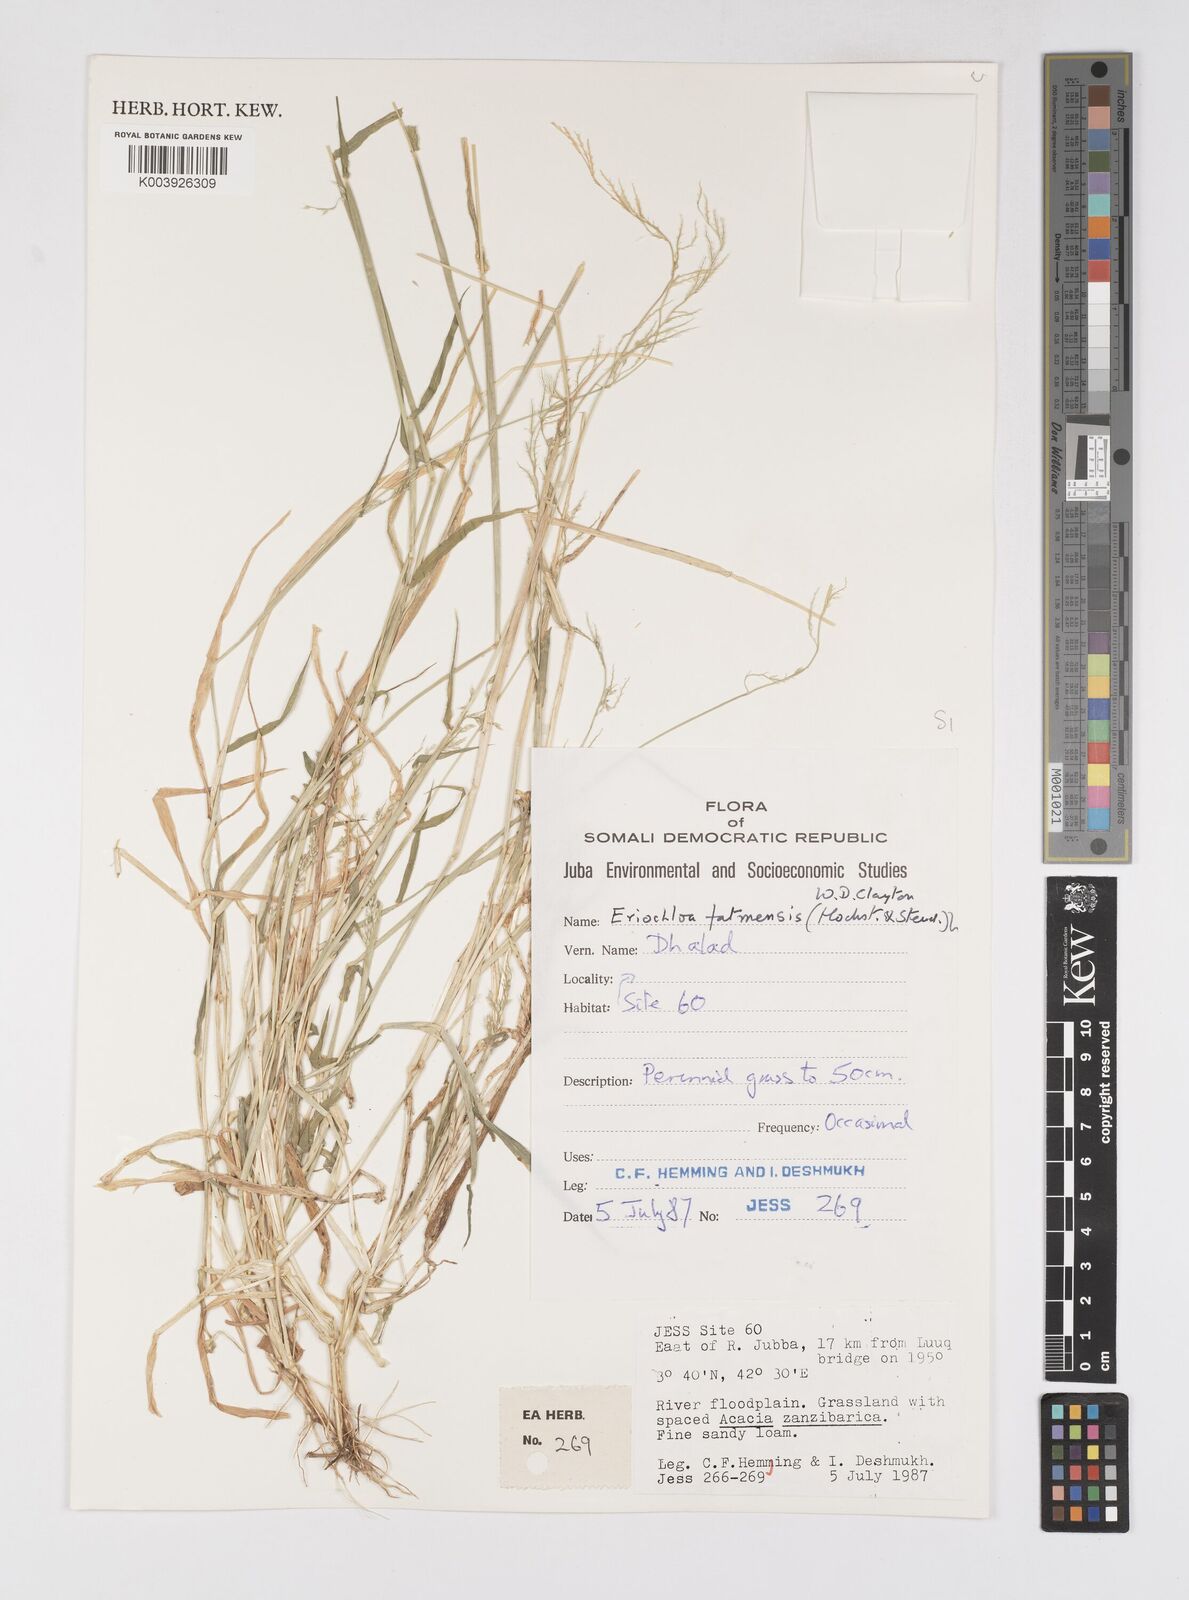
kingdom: Plantae
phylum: Tracheophyta
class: Liliopsida
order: Poales
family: Poaceae
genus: Eriochloa
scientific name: Eriochloa barbatus
